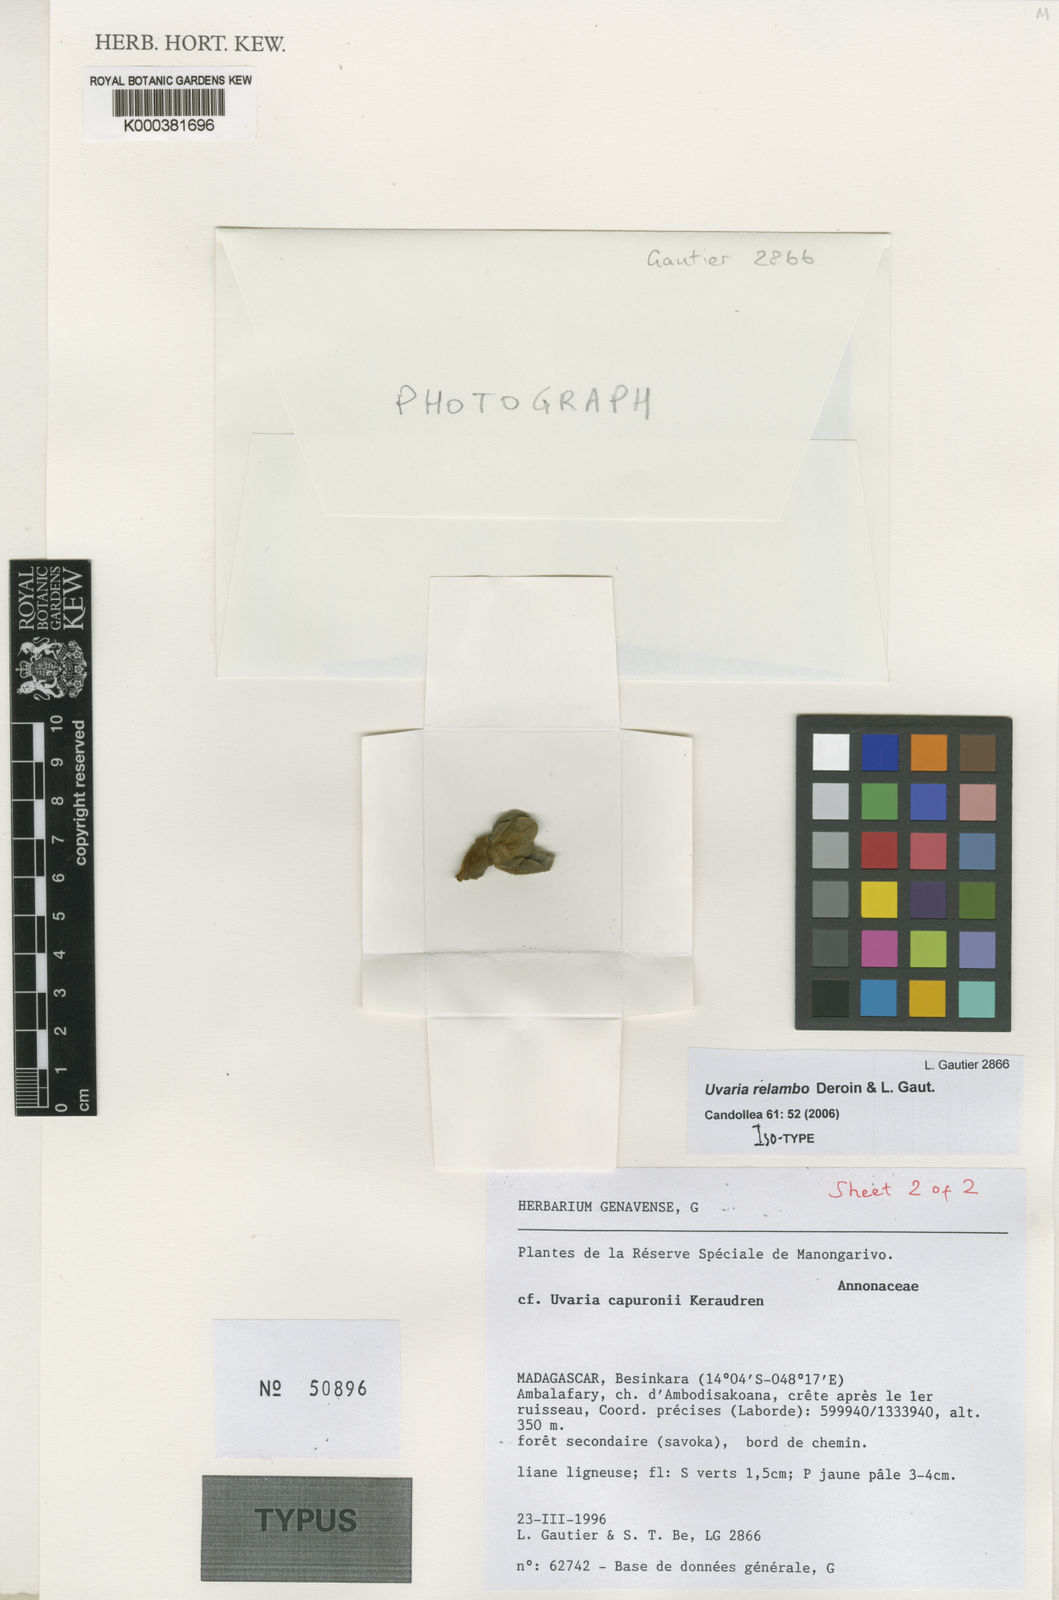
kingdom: Plantae
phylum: Tracheophyta
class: Magnoliopsida
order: Magnoliales
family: Annonaceae
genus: Uvaria
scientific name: Uvaria relambo
